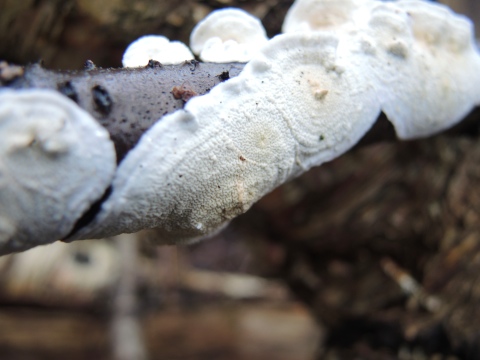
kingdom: Fungi
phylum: Basidiomycota
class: Agaricomycetes
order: Polyporales
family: Irpicaceae
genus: Byssomerulius
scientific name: Byssomerulius corium
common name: læder-åresvamp
